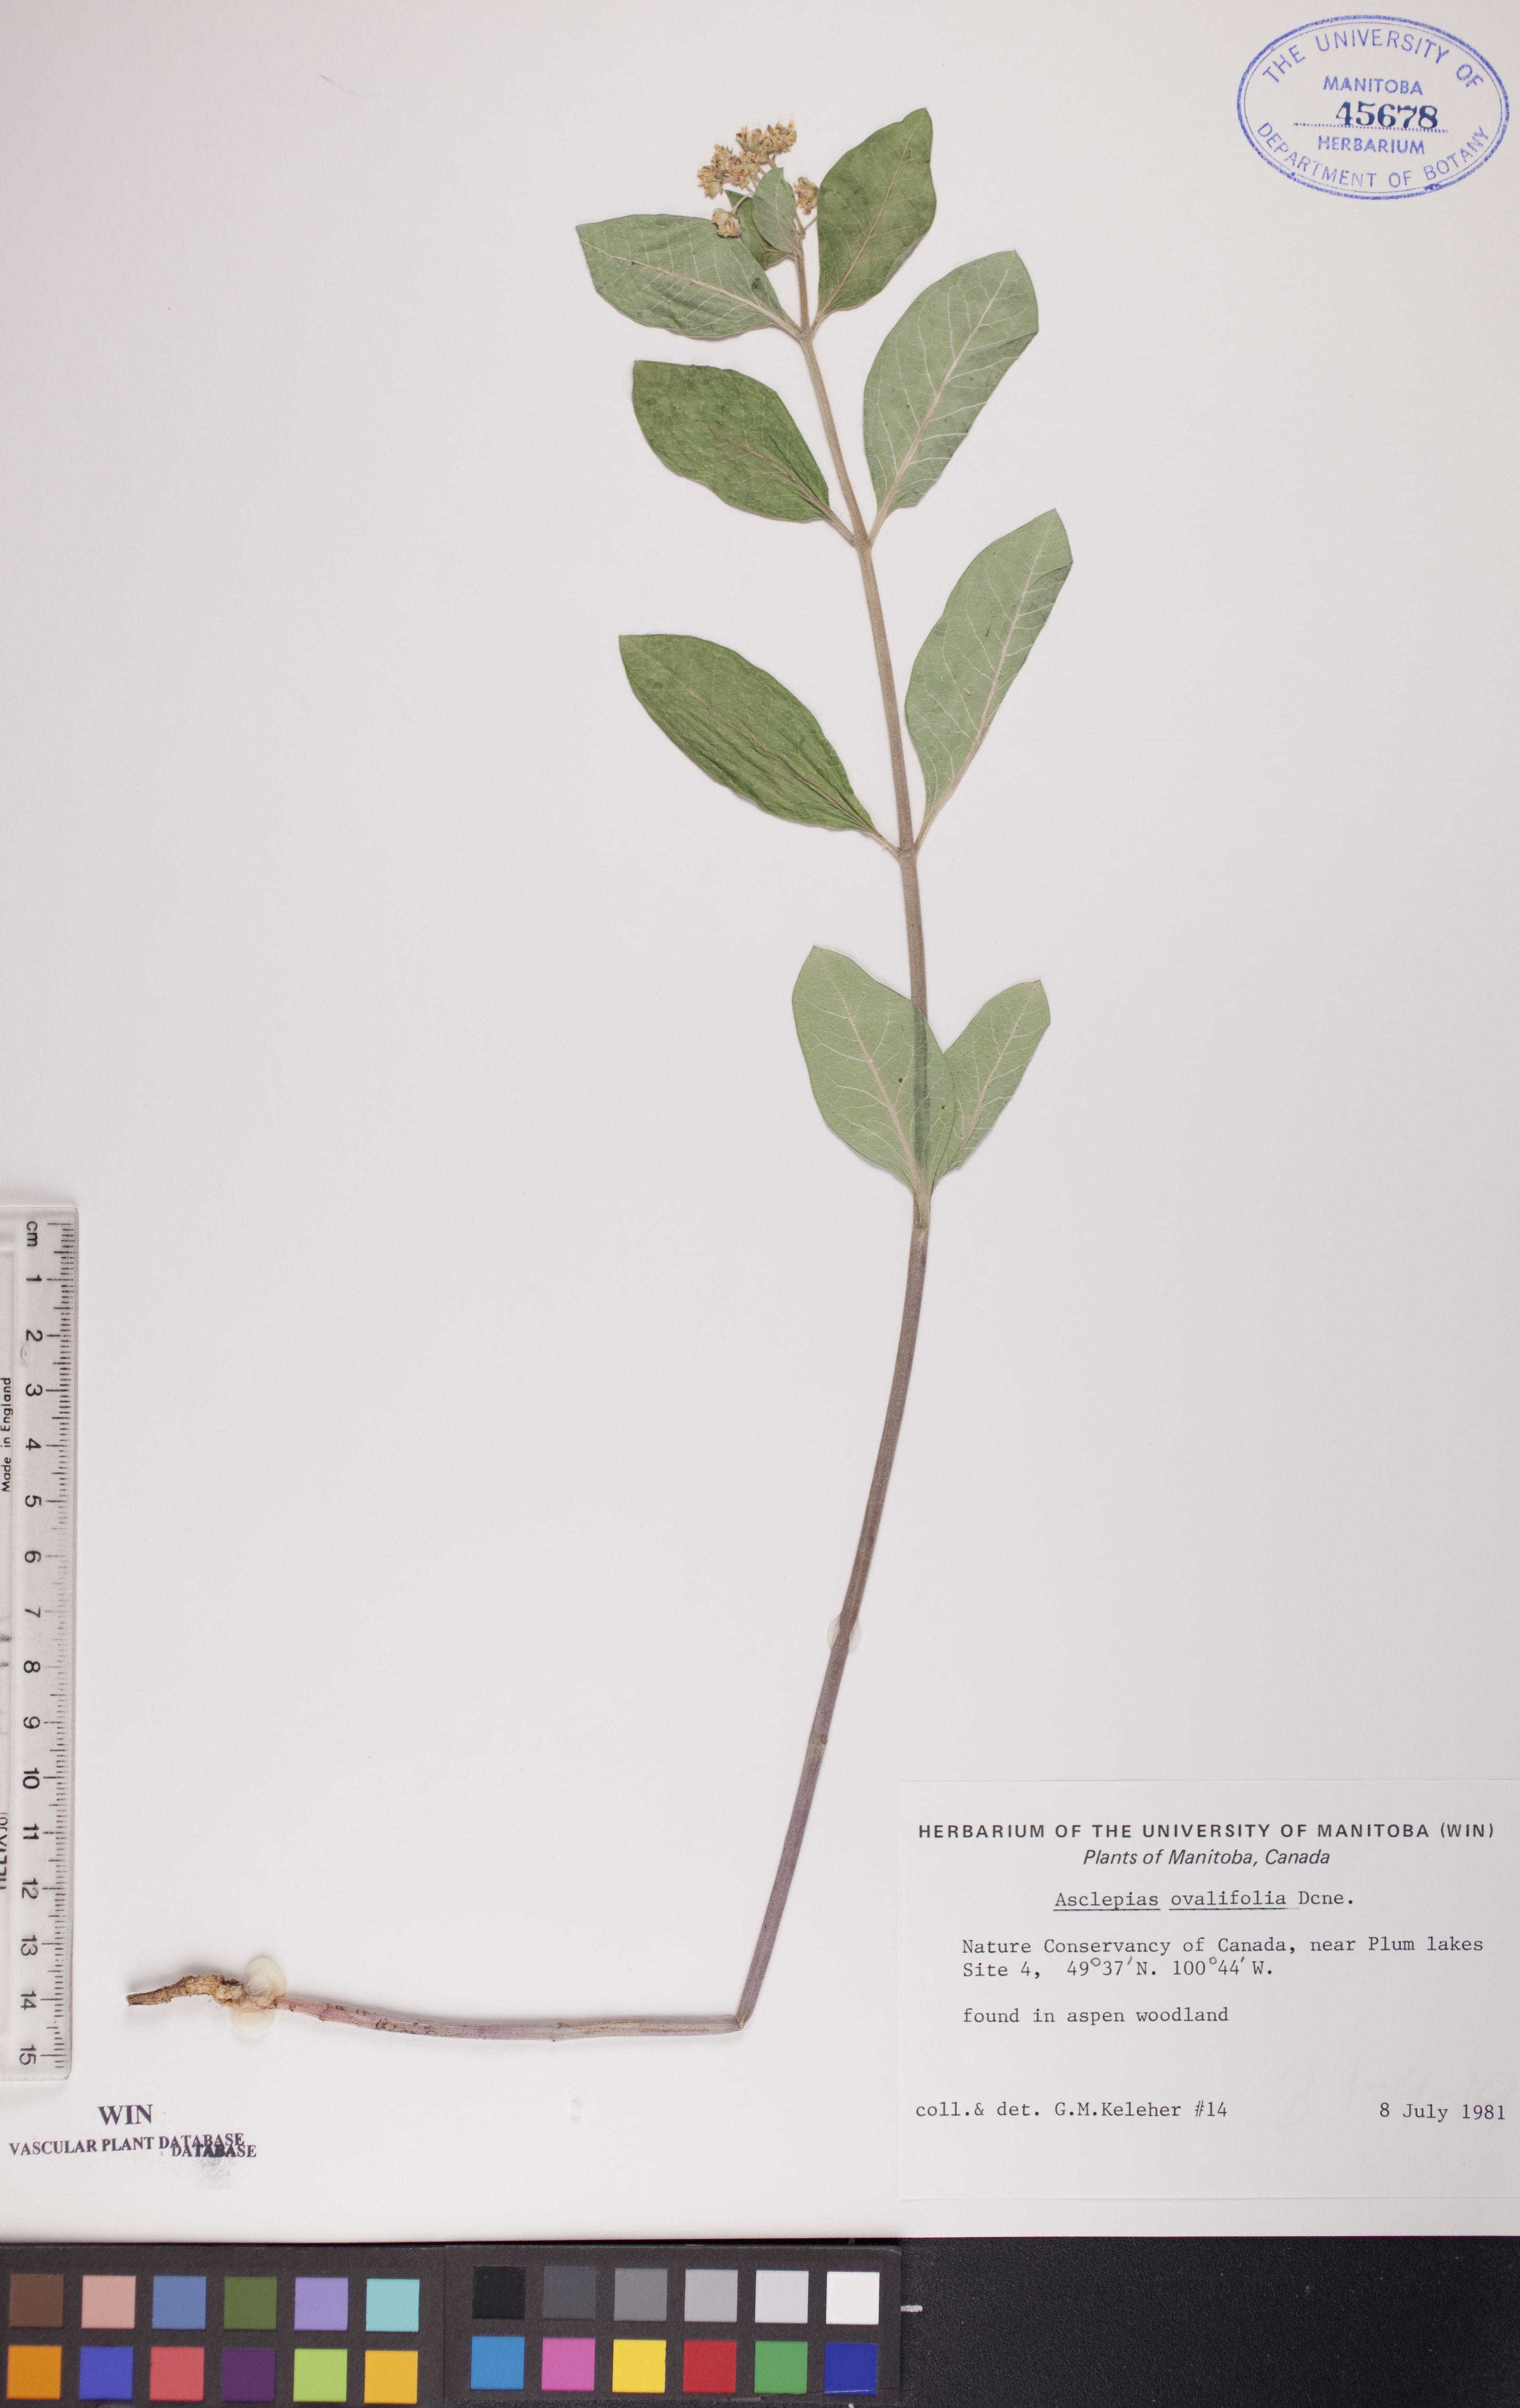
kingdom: Plantae
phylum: Tracheophyta
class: Magnoliopsida
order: Gentianales
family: Apocynaceae
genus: Asclepias
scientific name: Asclepias ovalifolia
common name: Dwarf milkweed
